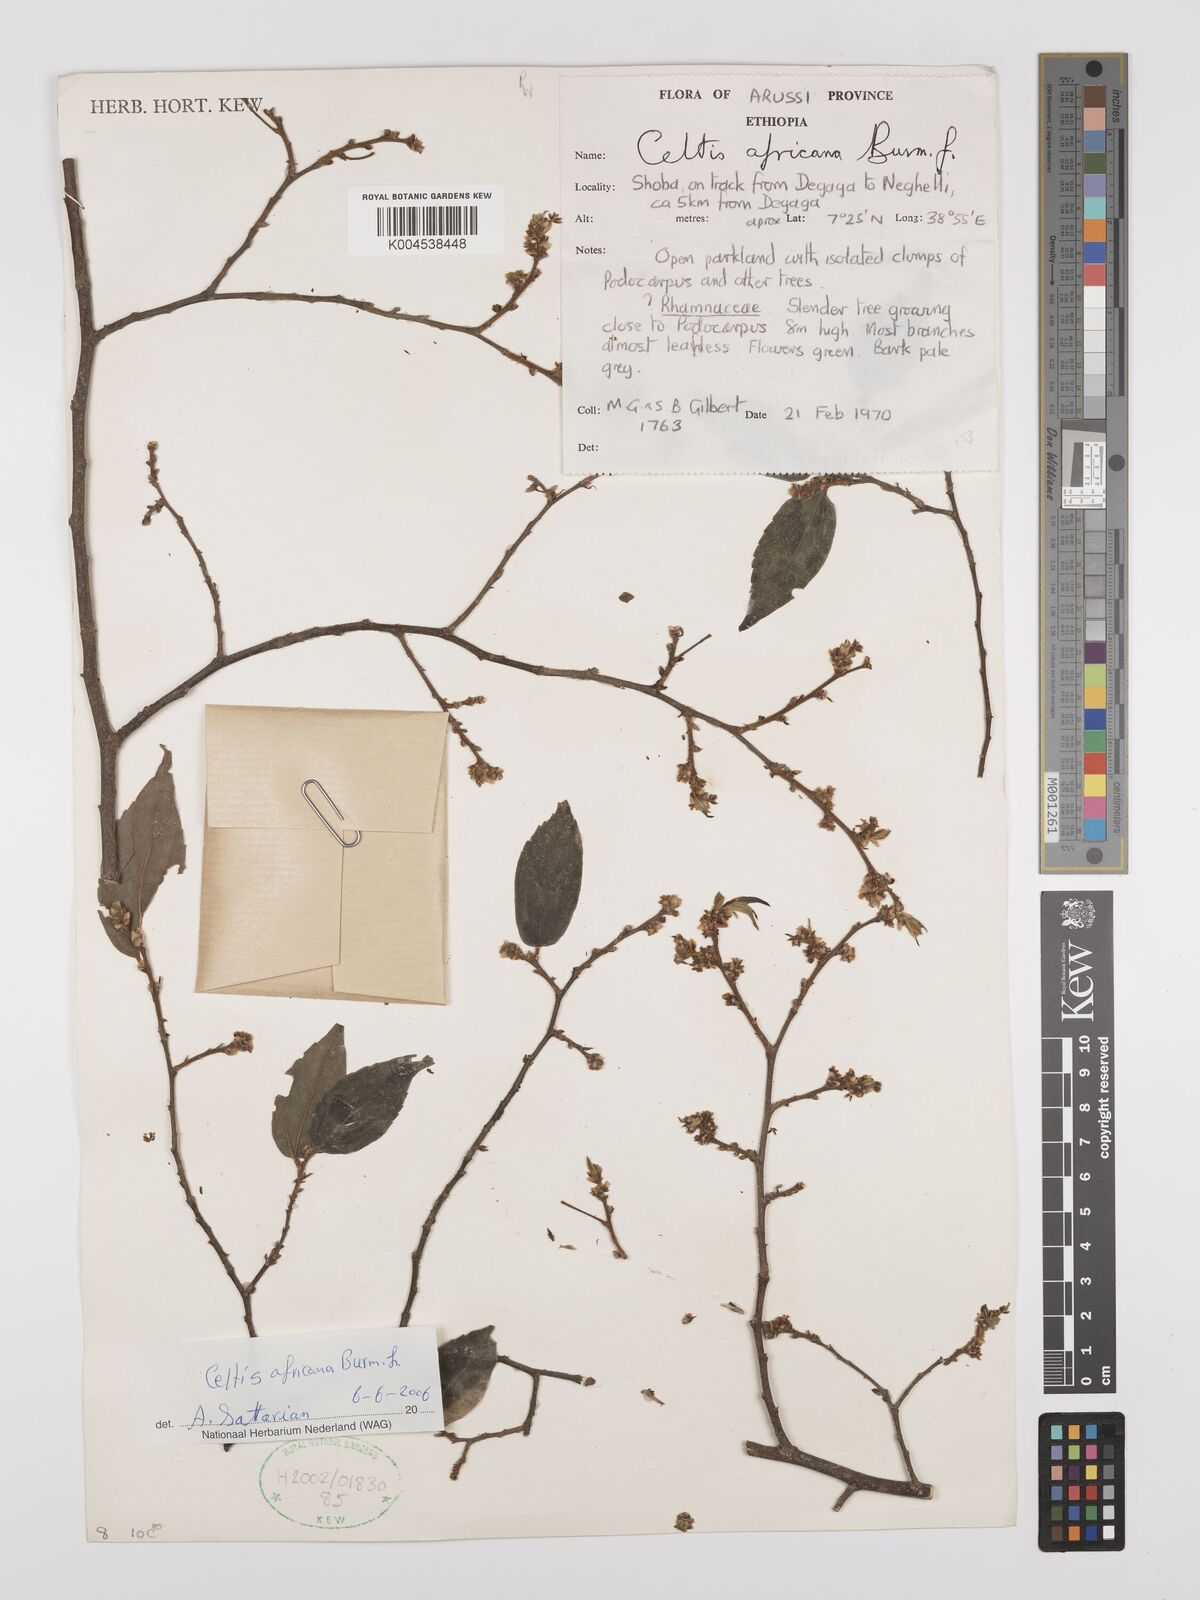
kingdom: Plantae
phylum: Tracheophyta
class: Magnoliopsida
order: Rosales
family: Cannabaceae
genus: Celtis
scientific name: Celtis africana
